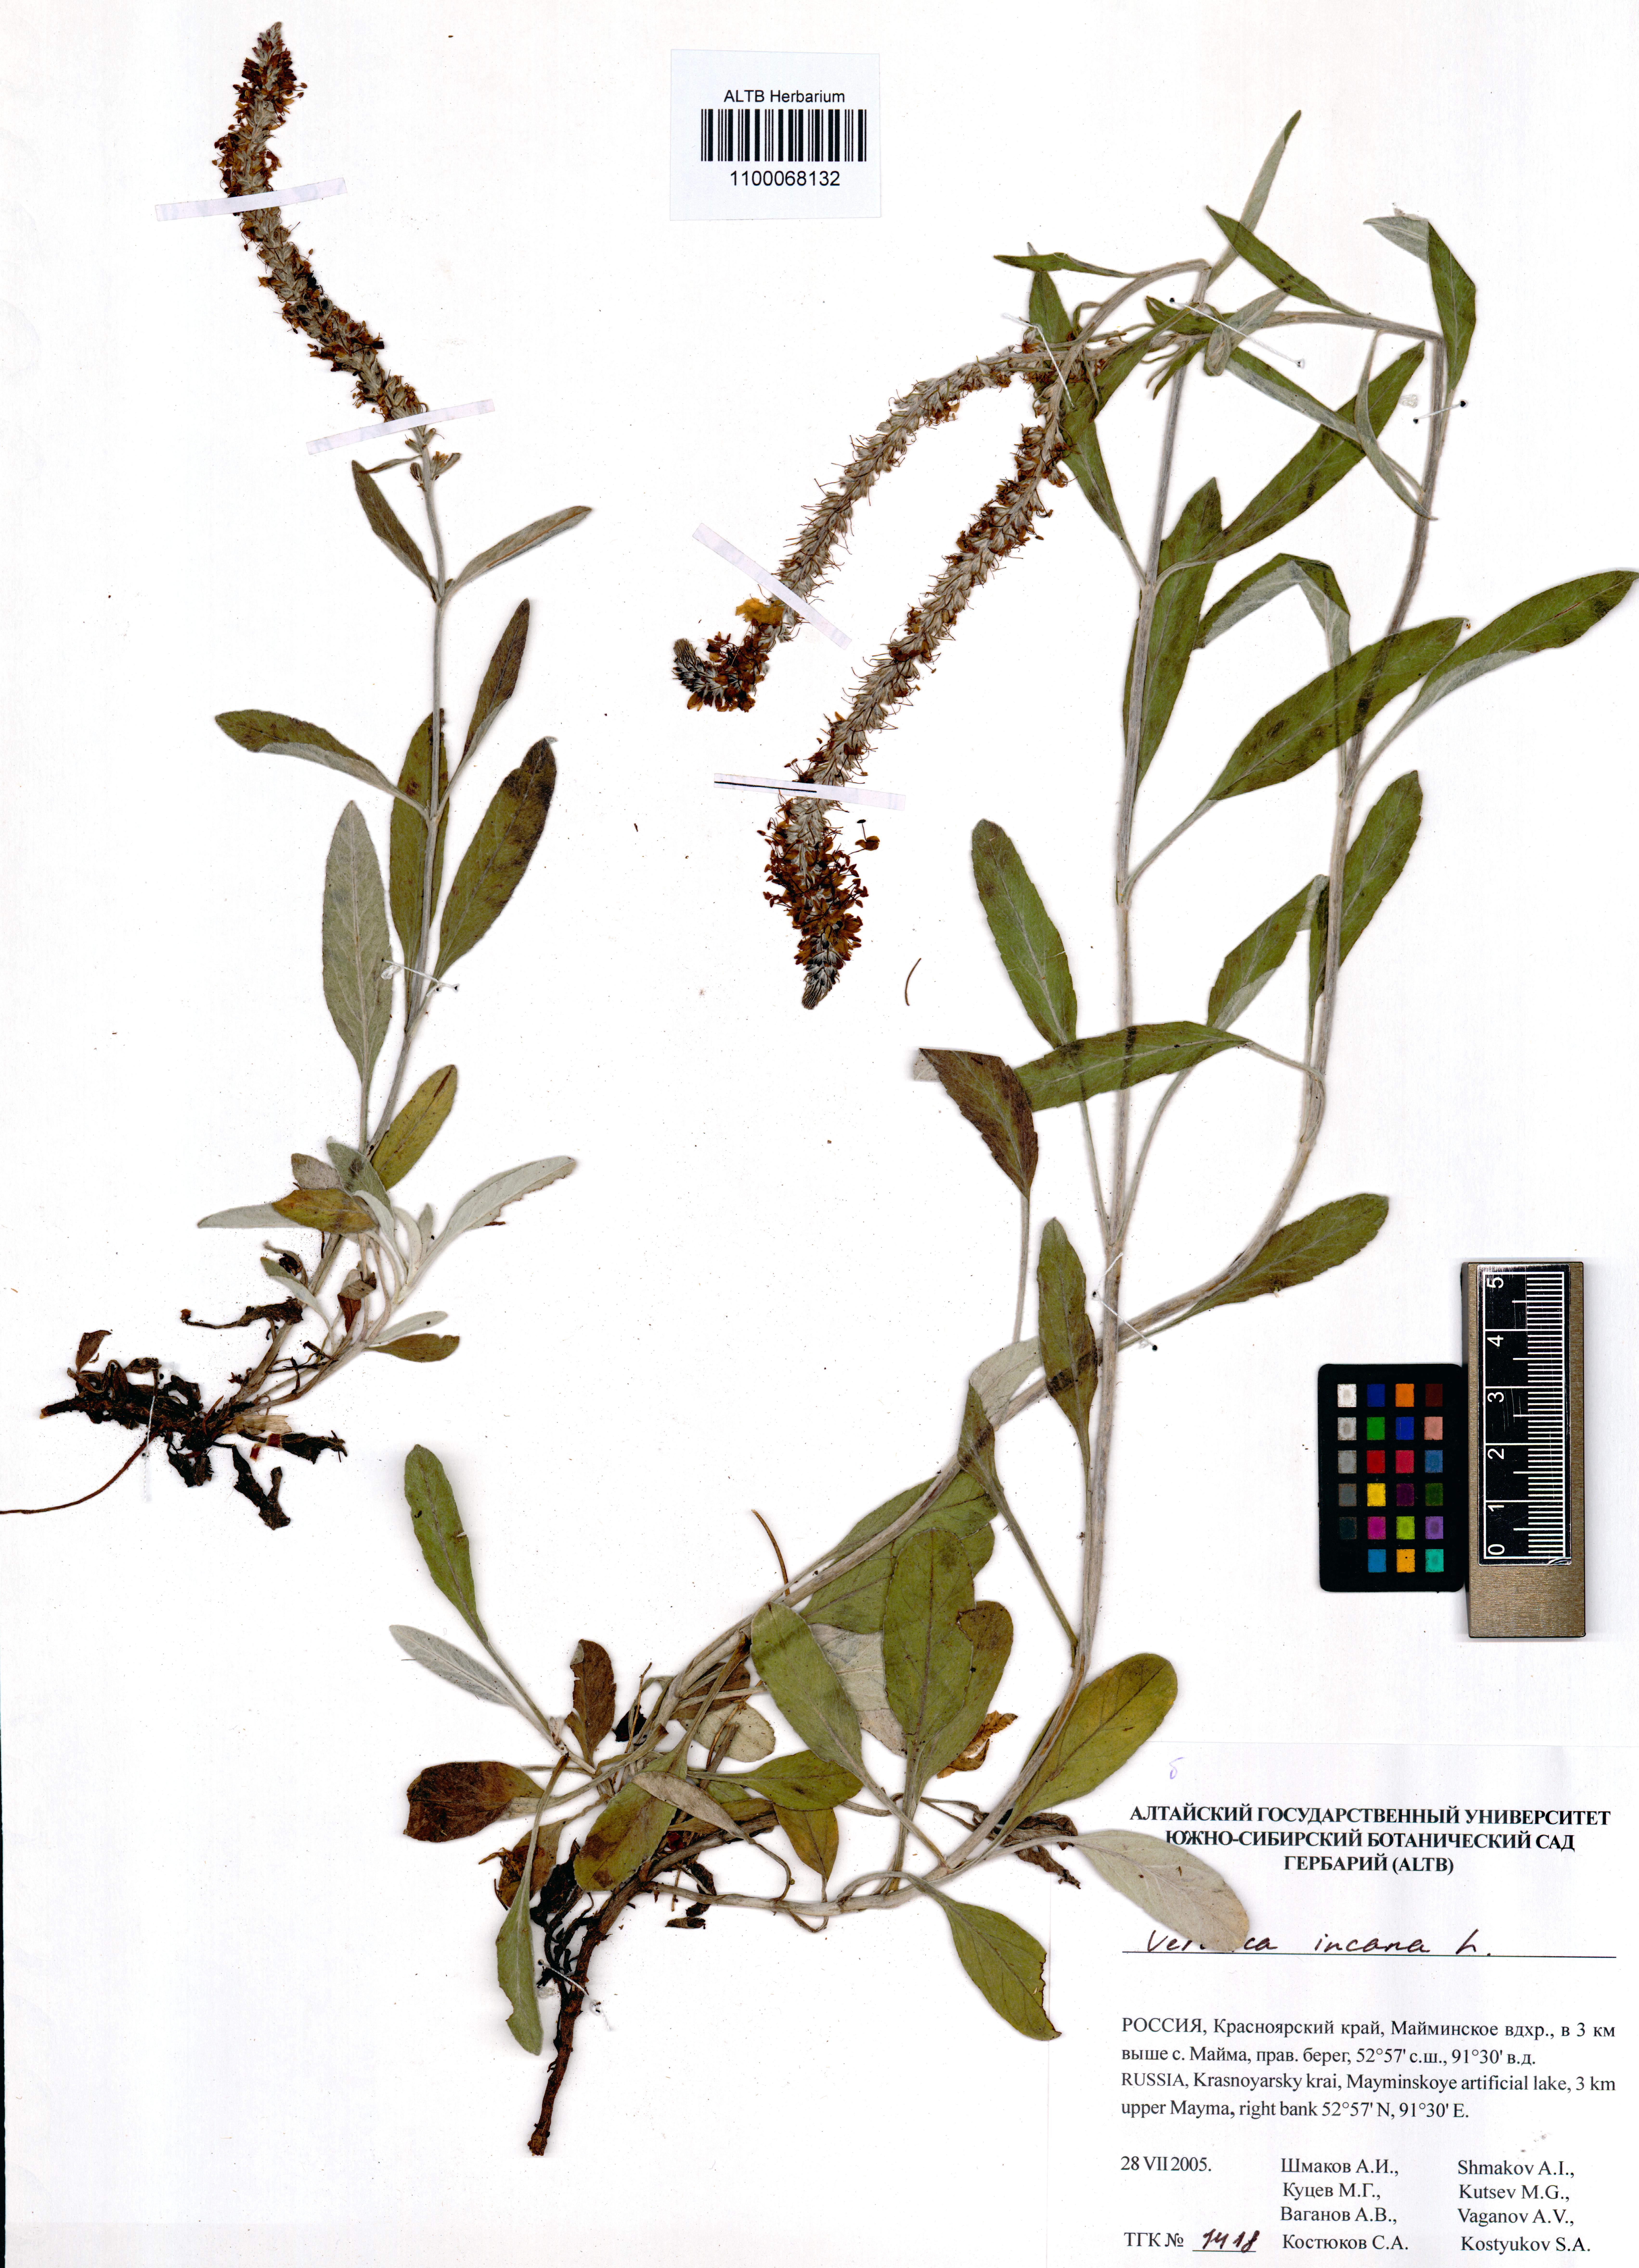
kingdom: Plantae
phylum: Tracheophyta
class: Magnoliopsida
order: Lamiales
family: Plantaginaceae
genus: Veronica
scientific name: Veronica incana
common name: Silver speedwell
